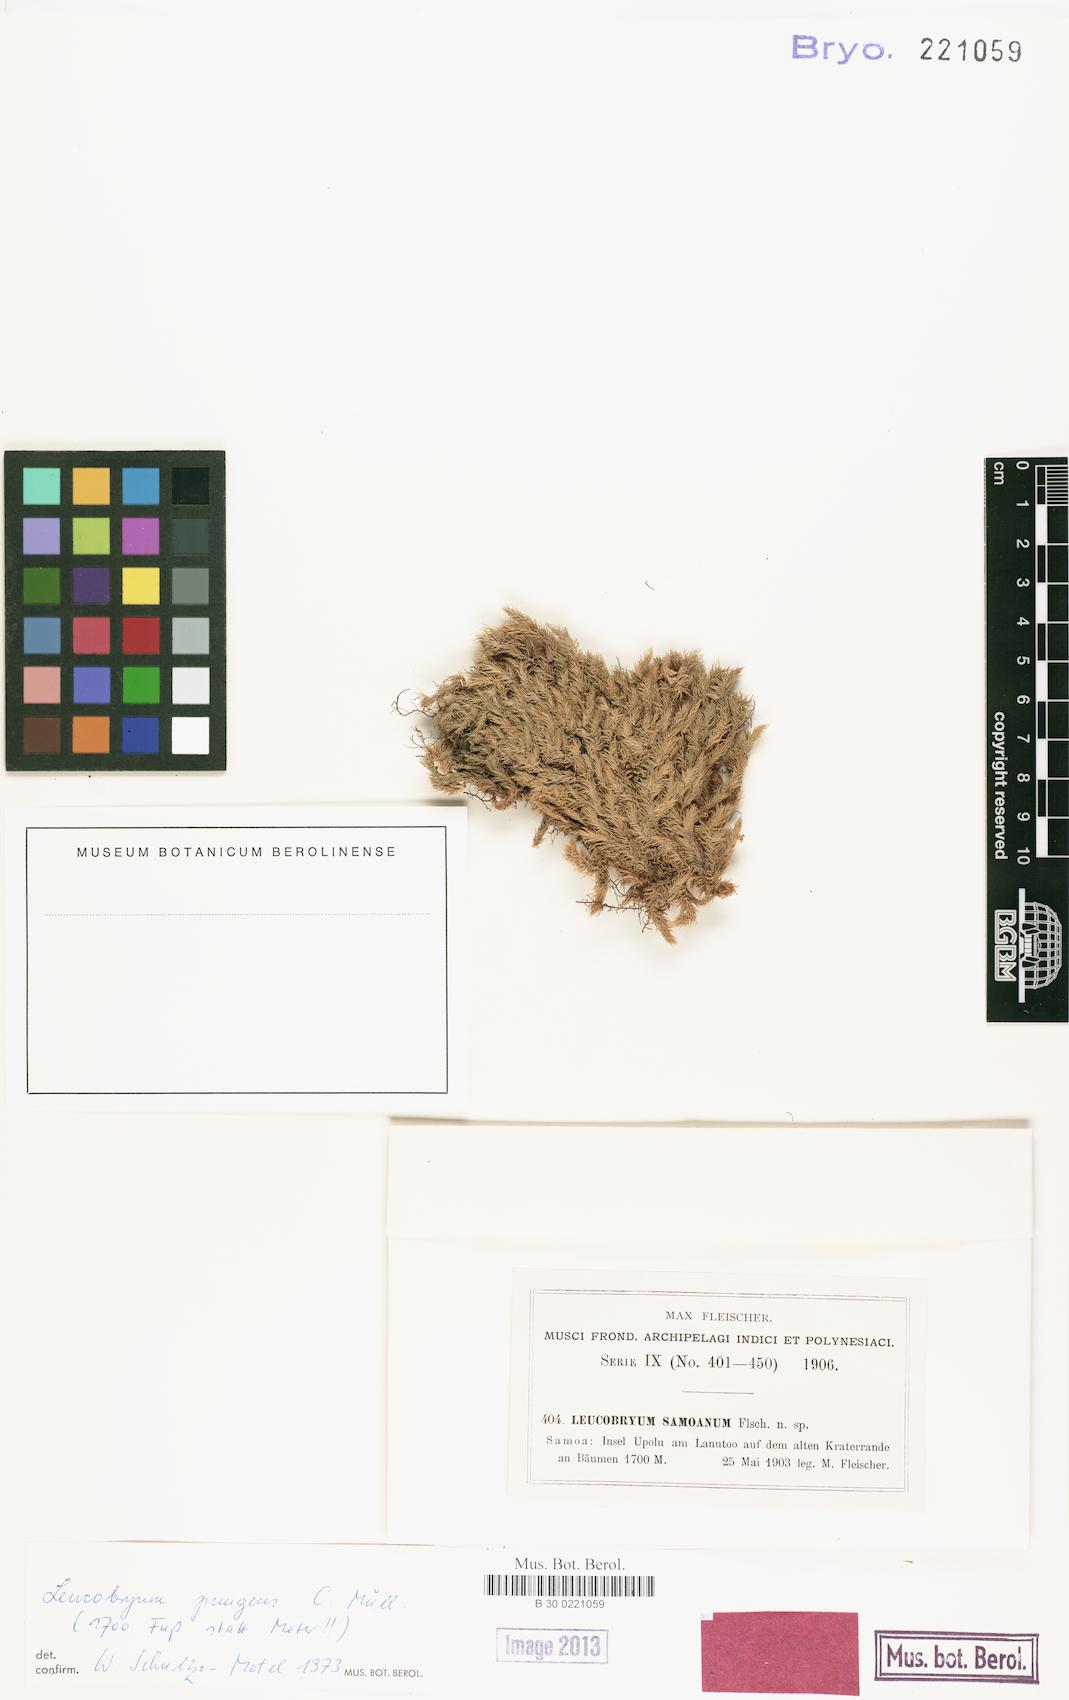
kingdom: Plantae
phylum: Bryophyta
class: Bryopsida
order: Dicranales
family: Leucobryaceae
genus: Leucobryum
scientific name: Leucobryum pungens
